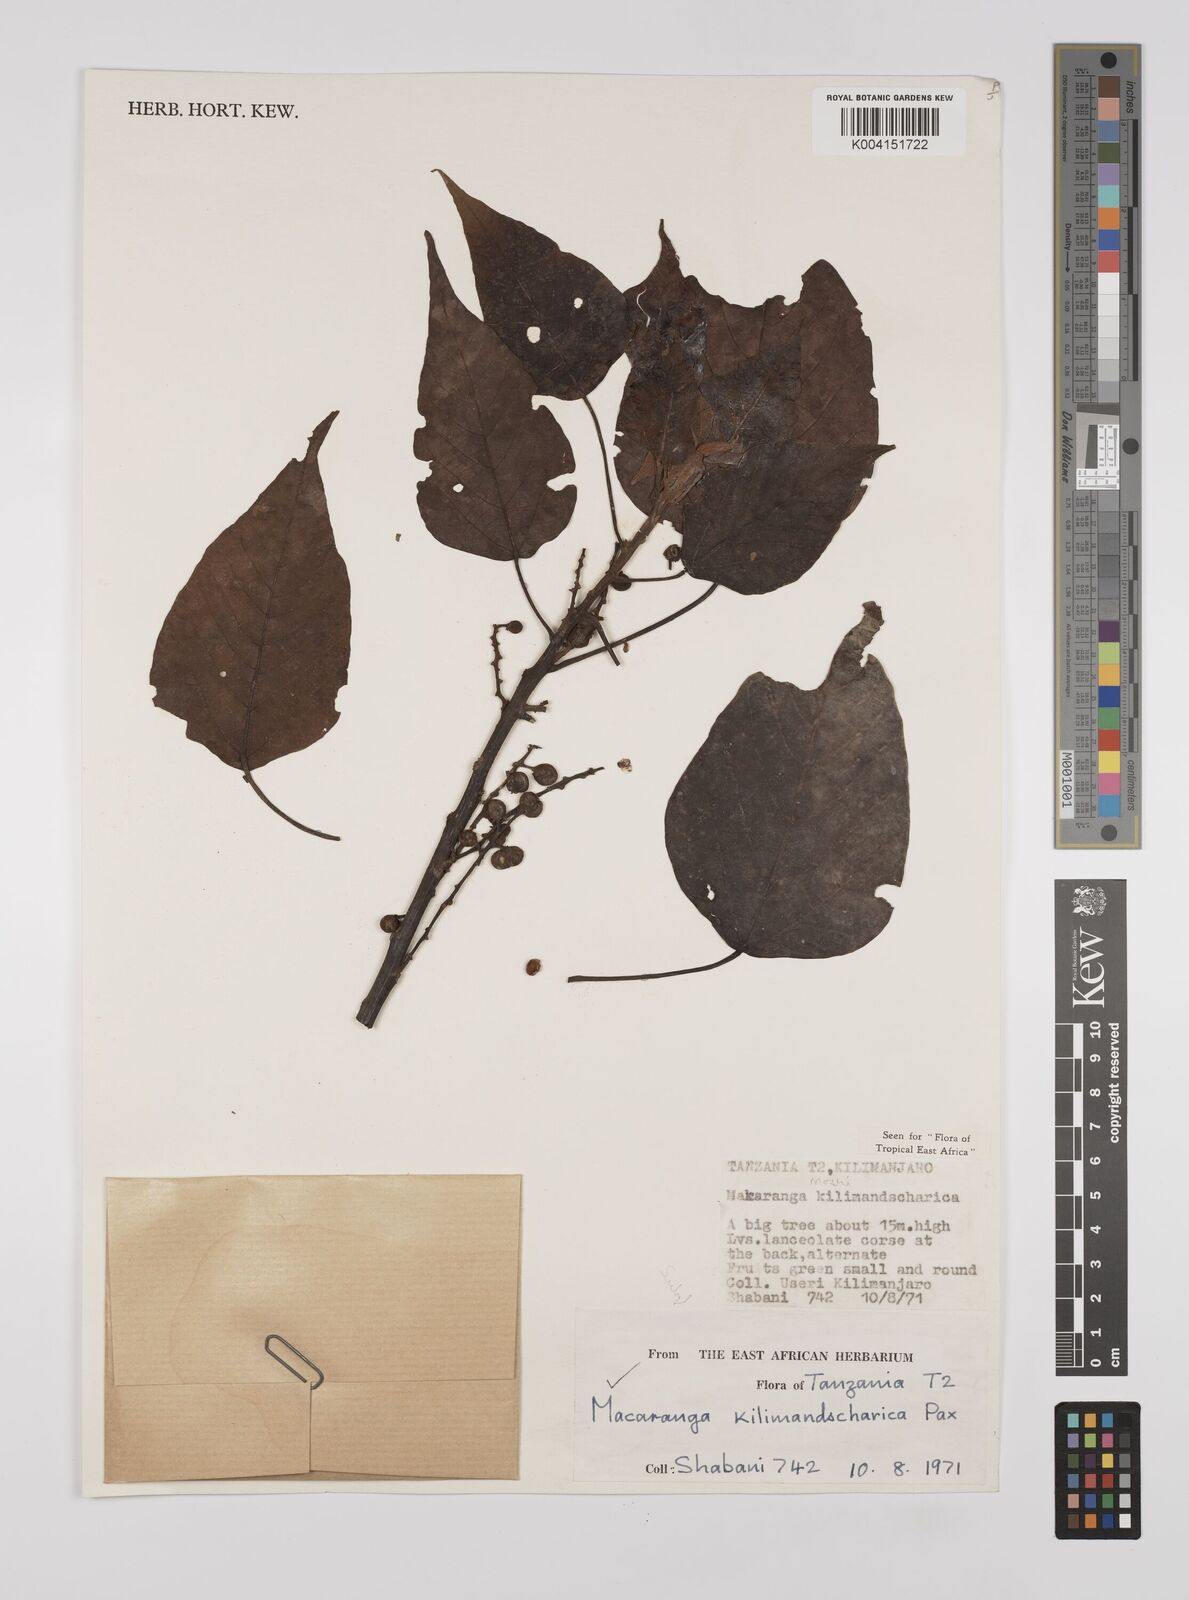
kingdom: Plantae
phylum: Tracheophyta
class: Magnoliopsida
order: Malpighiales
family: Euphorbiaceae
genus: Macaranga
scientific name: Macaranga kilimandscharica
